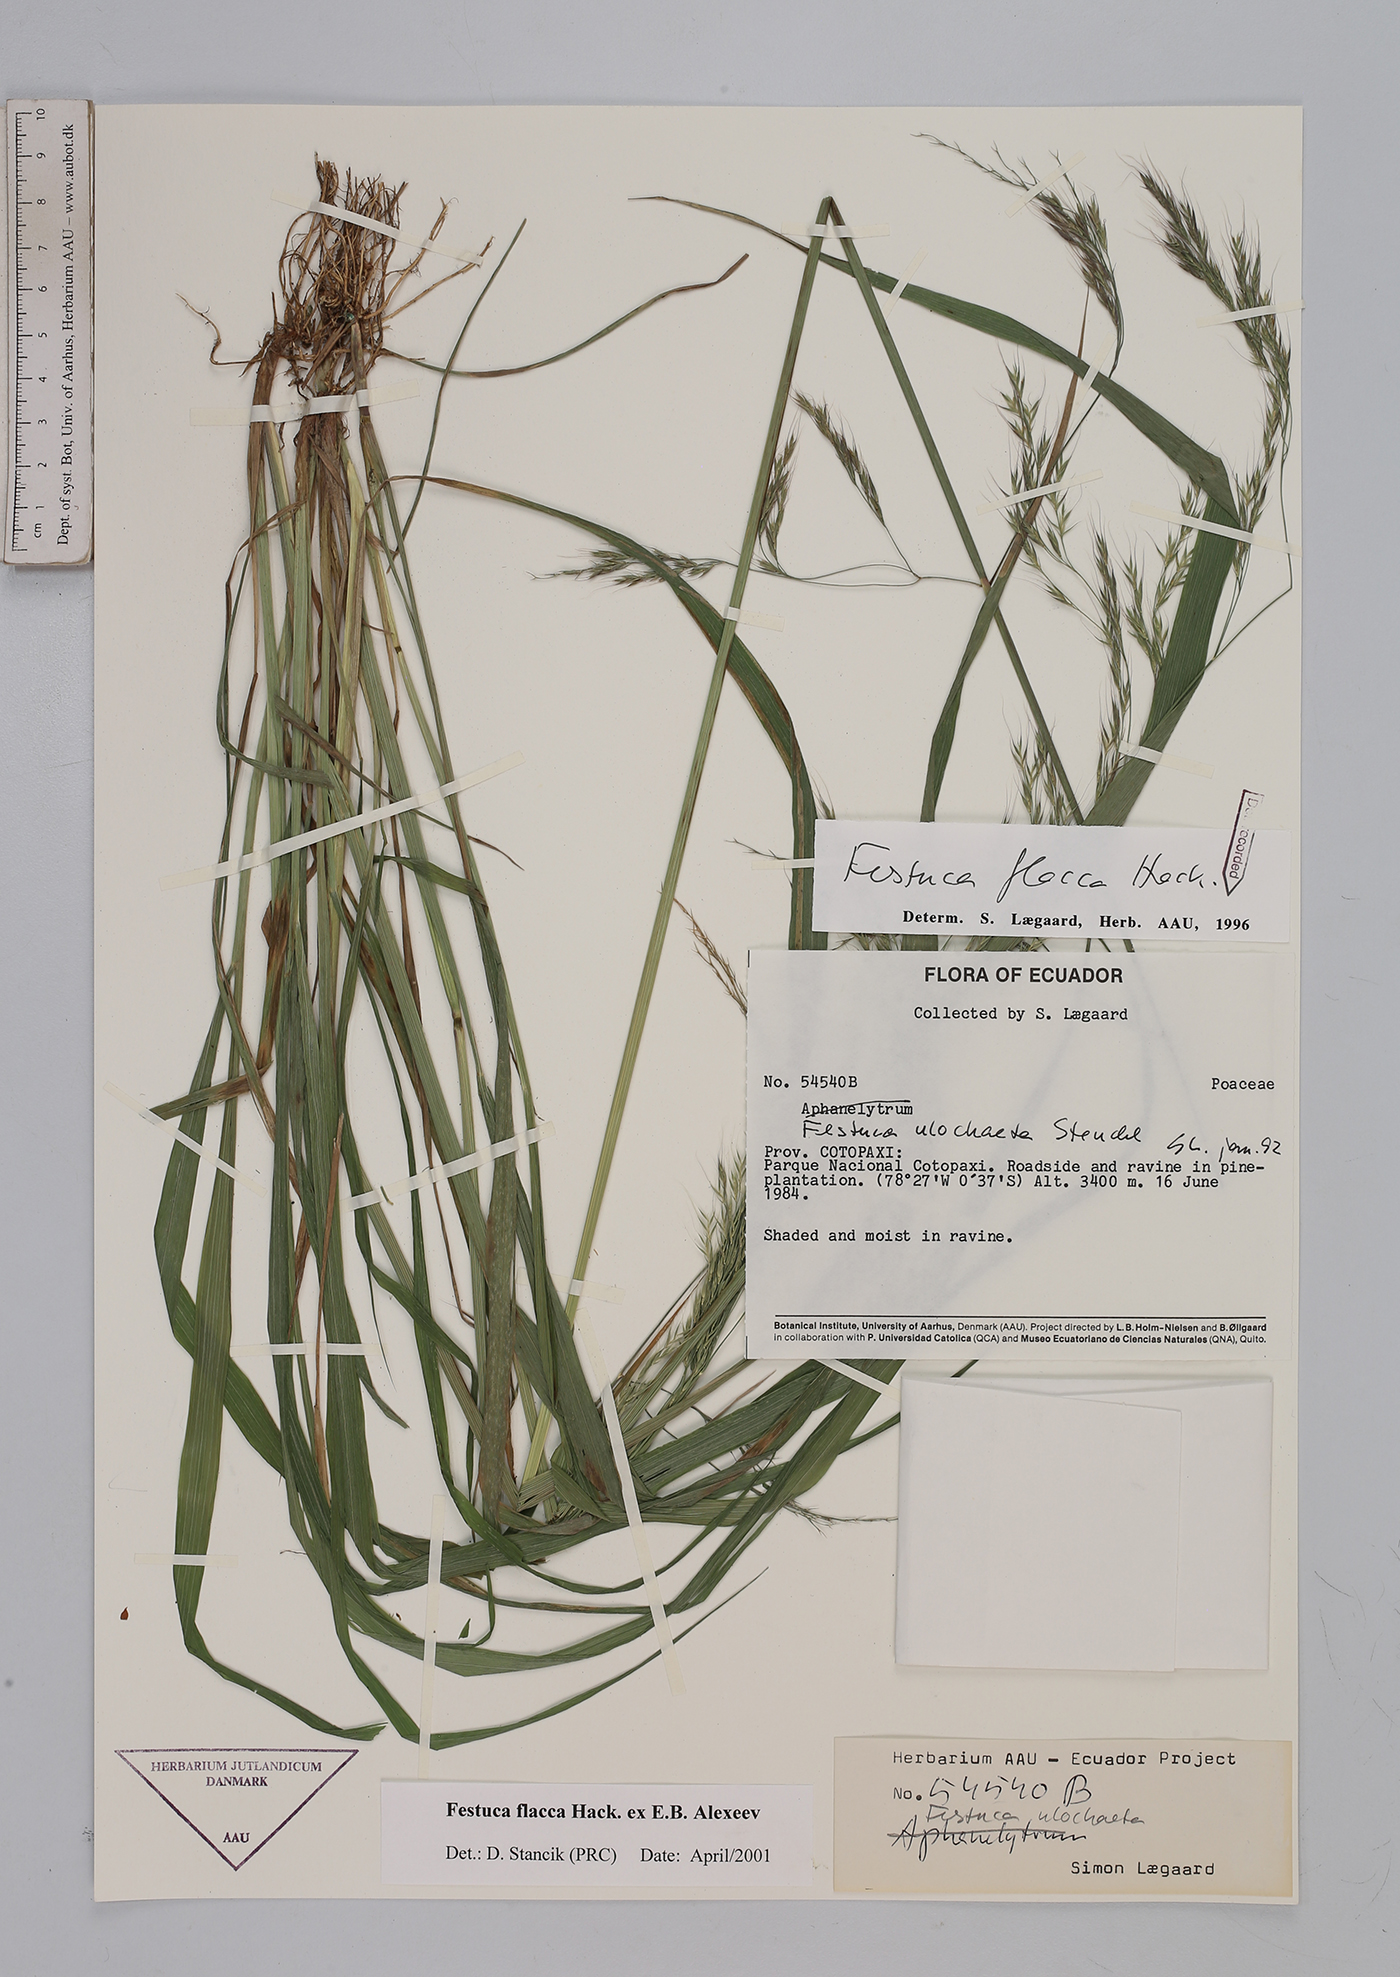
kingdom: Plantae
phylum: Tracheophyta
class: Liliopsida
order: Poales
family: Poaceae
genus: Festuca
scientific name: Festuca flacca
